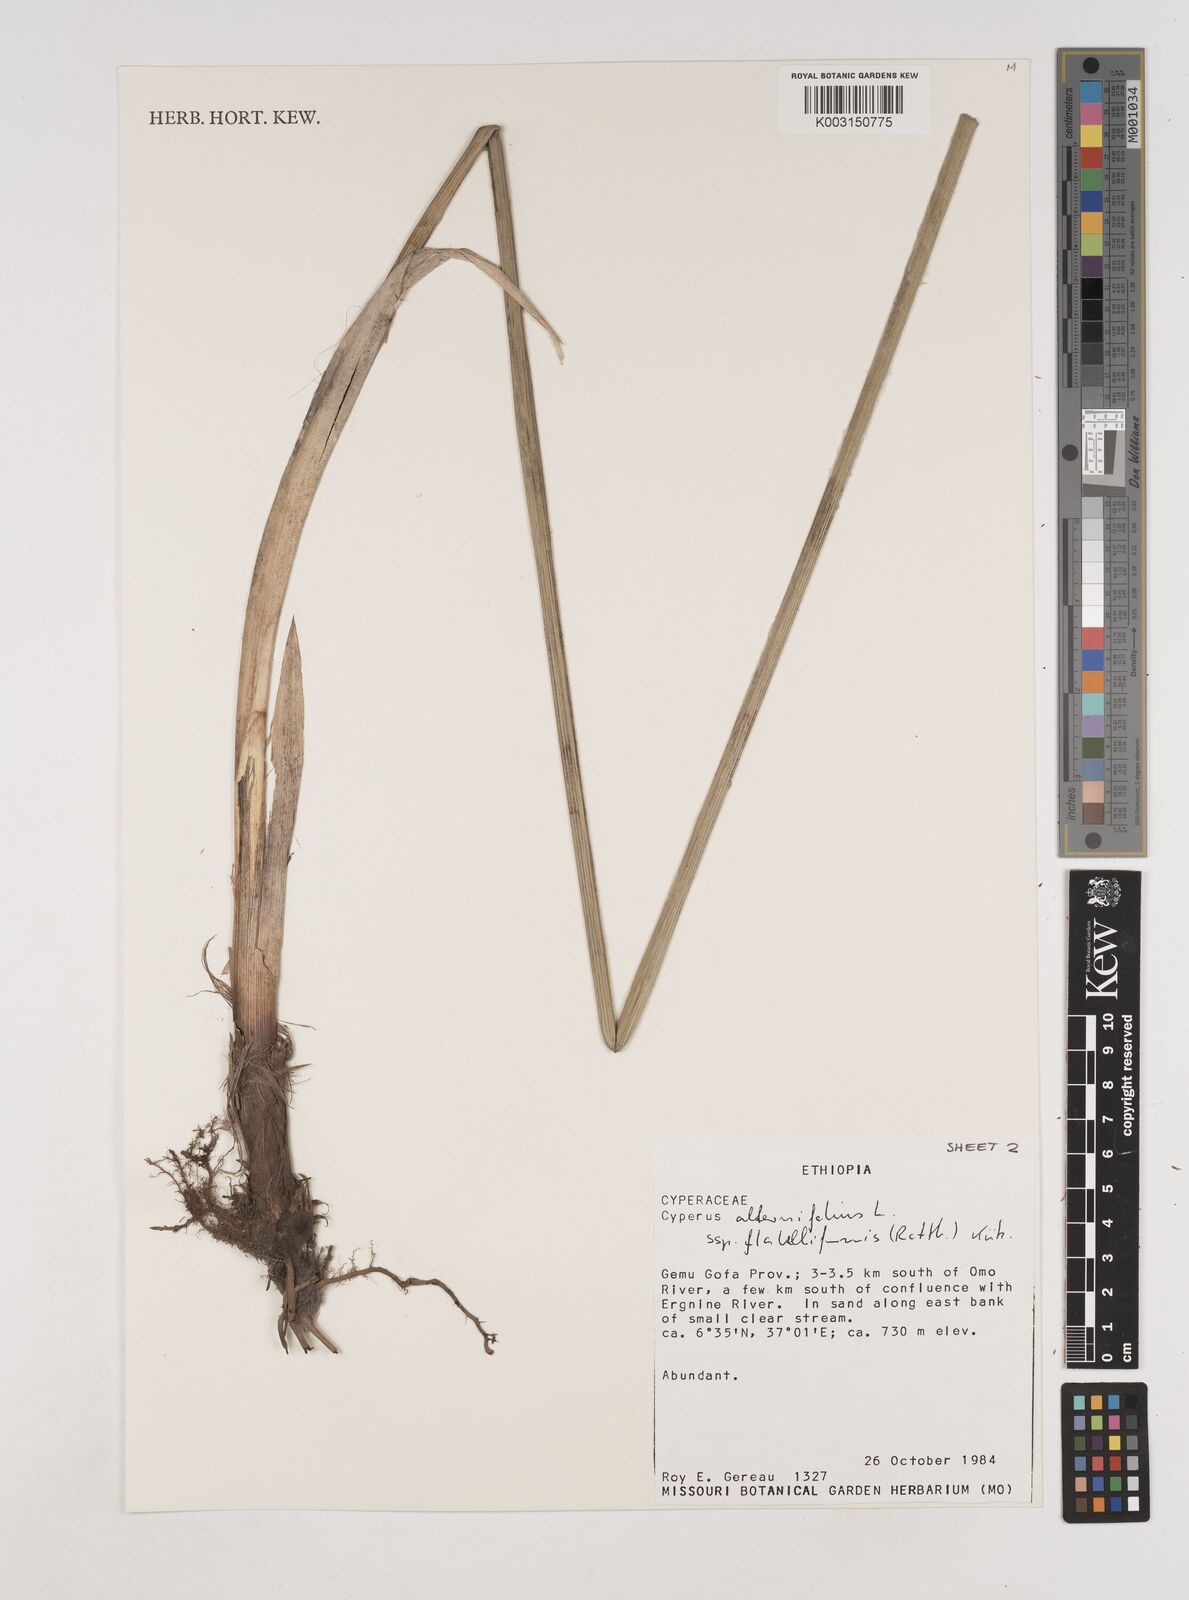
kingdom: Plantae
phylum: Tracheophyta
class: Liliopsida
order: Poales
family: Cyperaceae
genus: Cyperus
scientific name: Cyperus alternifolius
